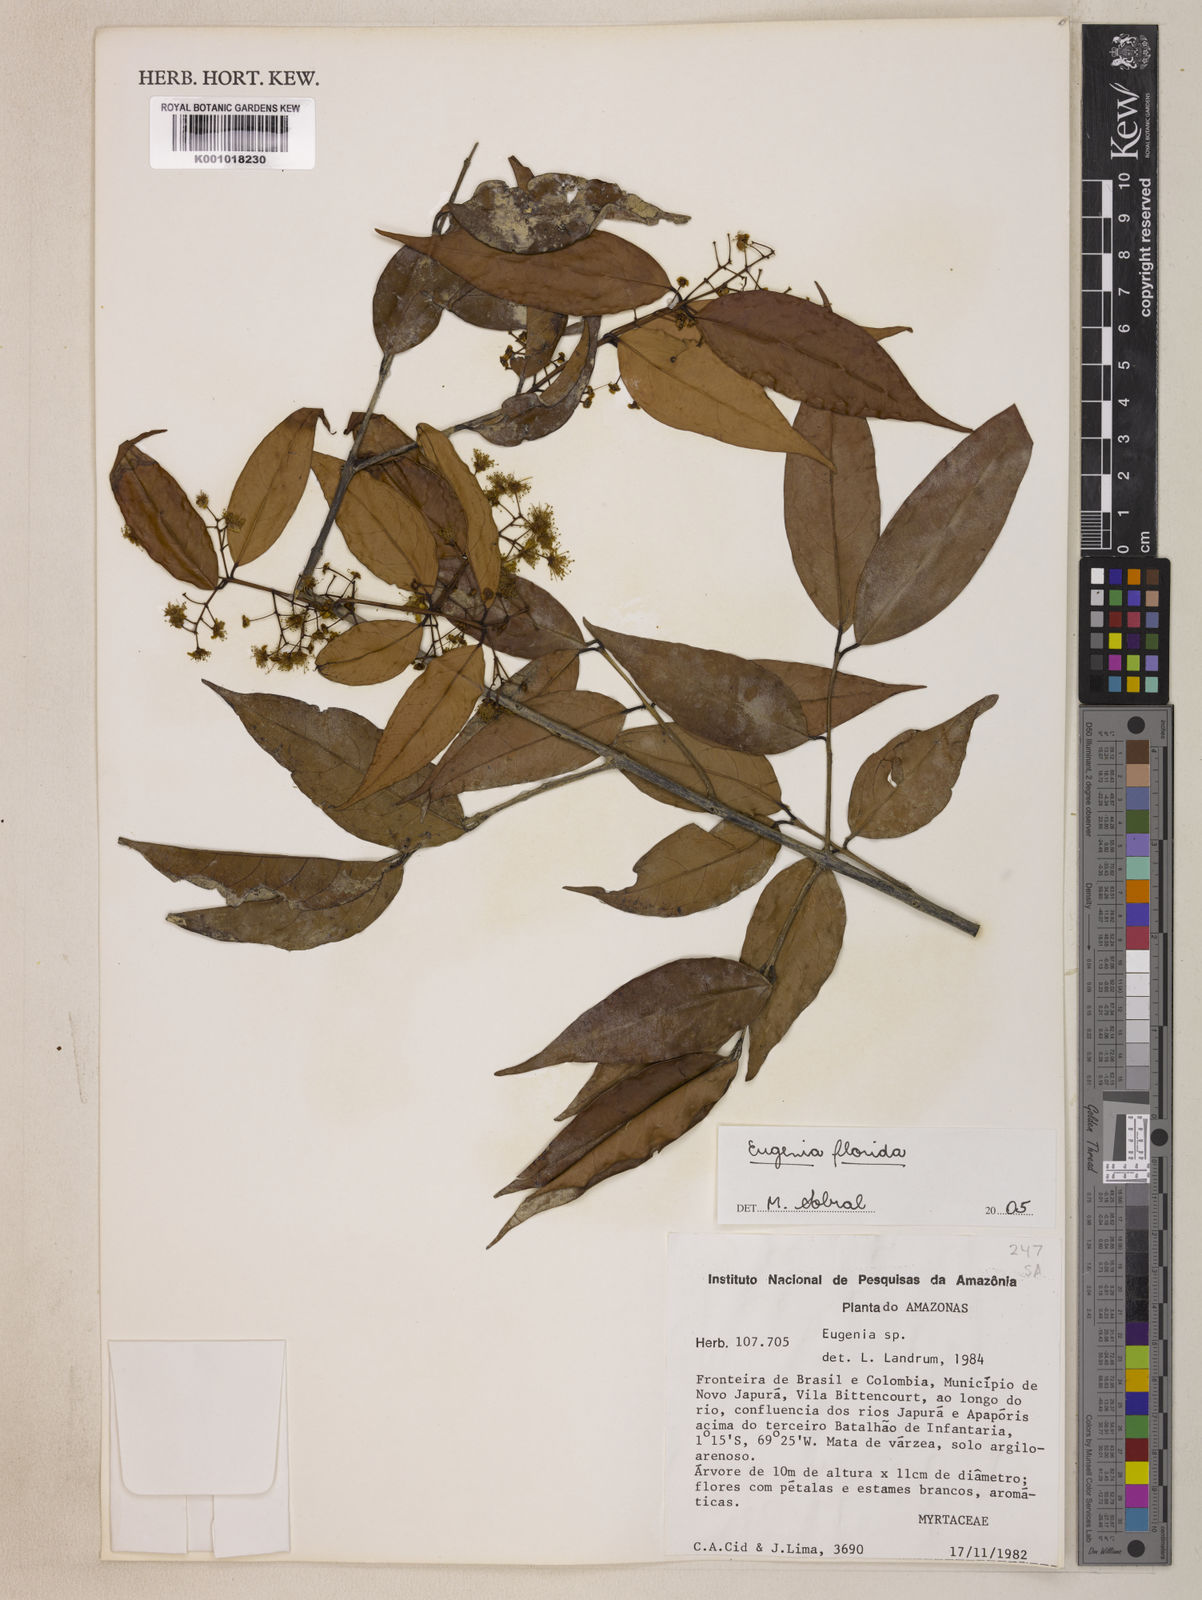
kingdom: Plantae
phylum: Tracheophyta
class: Magnoliopsida
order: Myrtales
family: Myrtaceae
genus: Eugenia
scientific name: Eugenia florida
